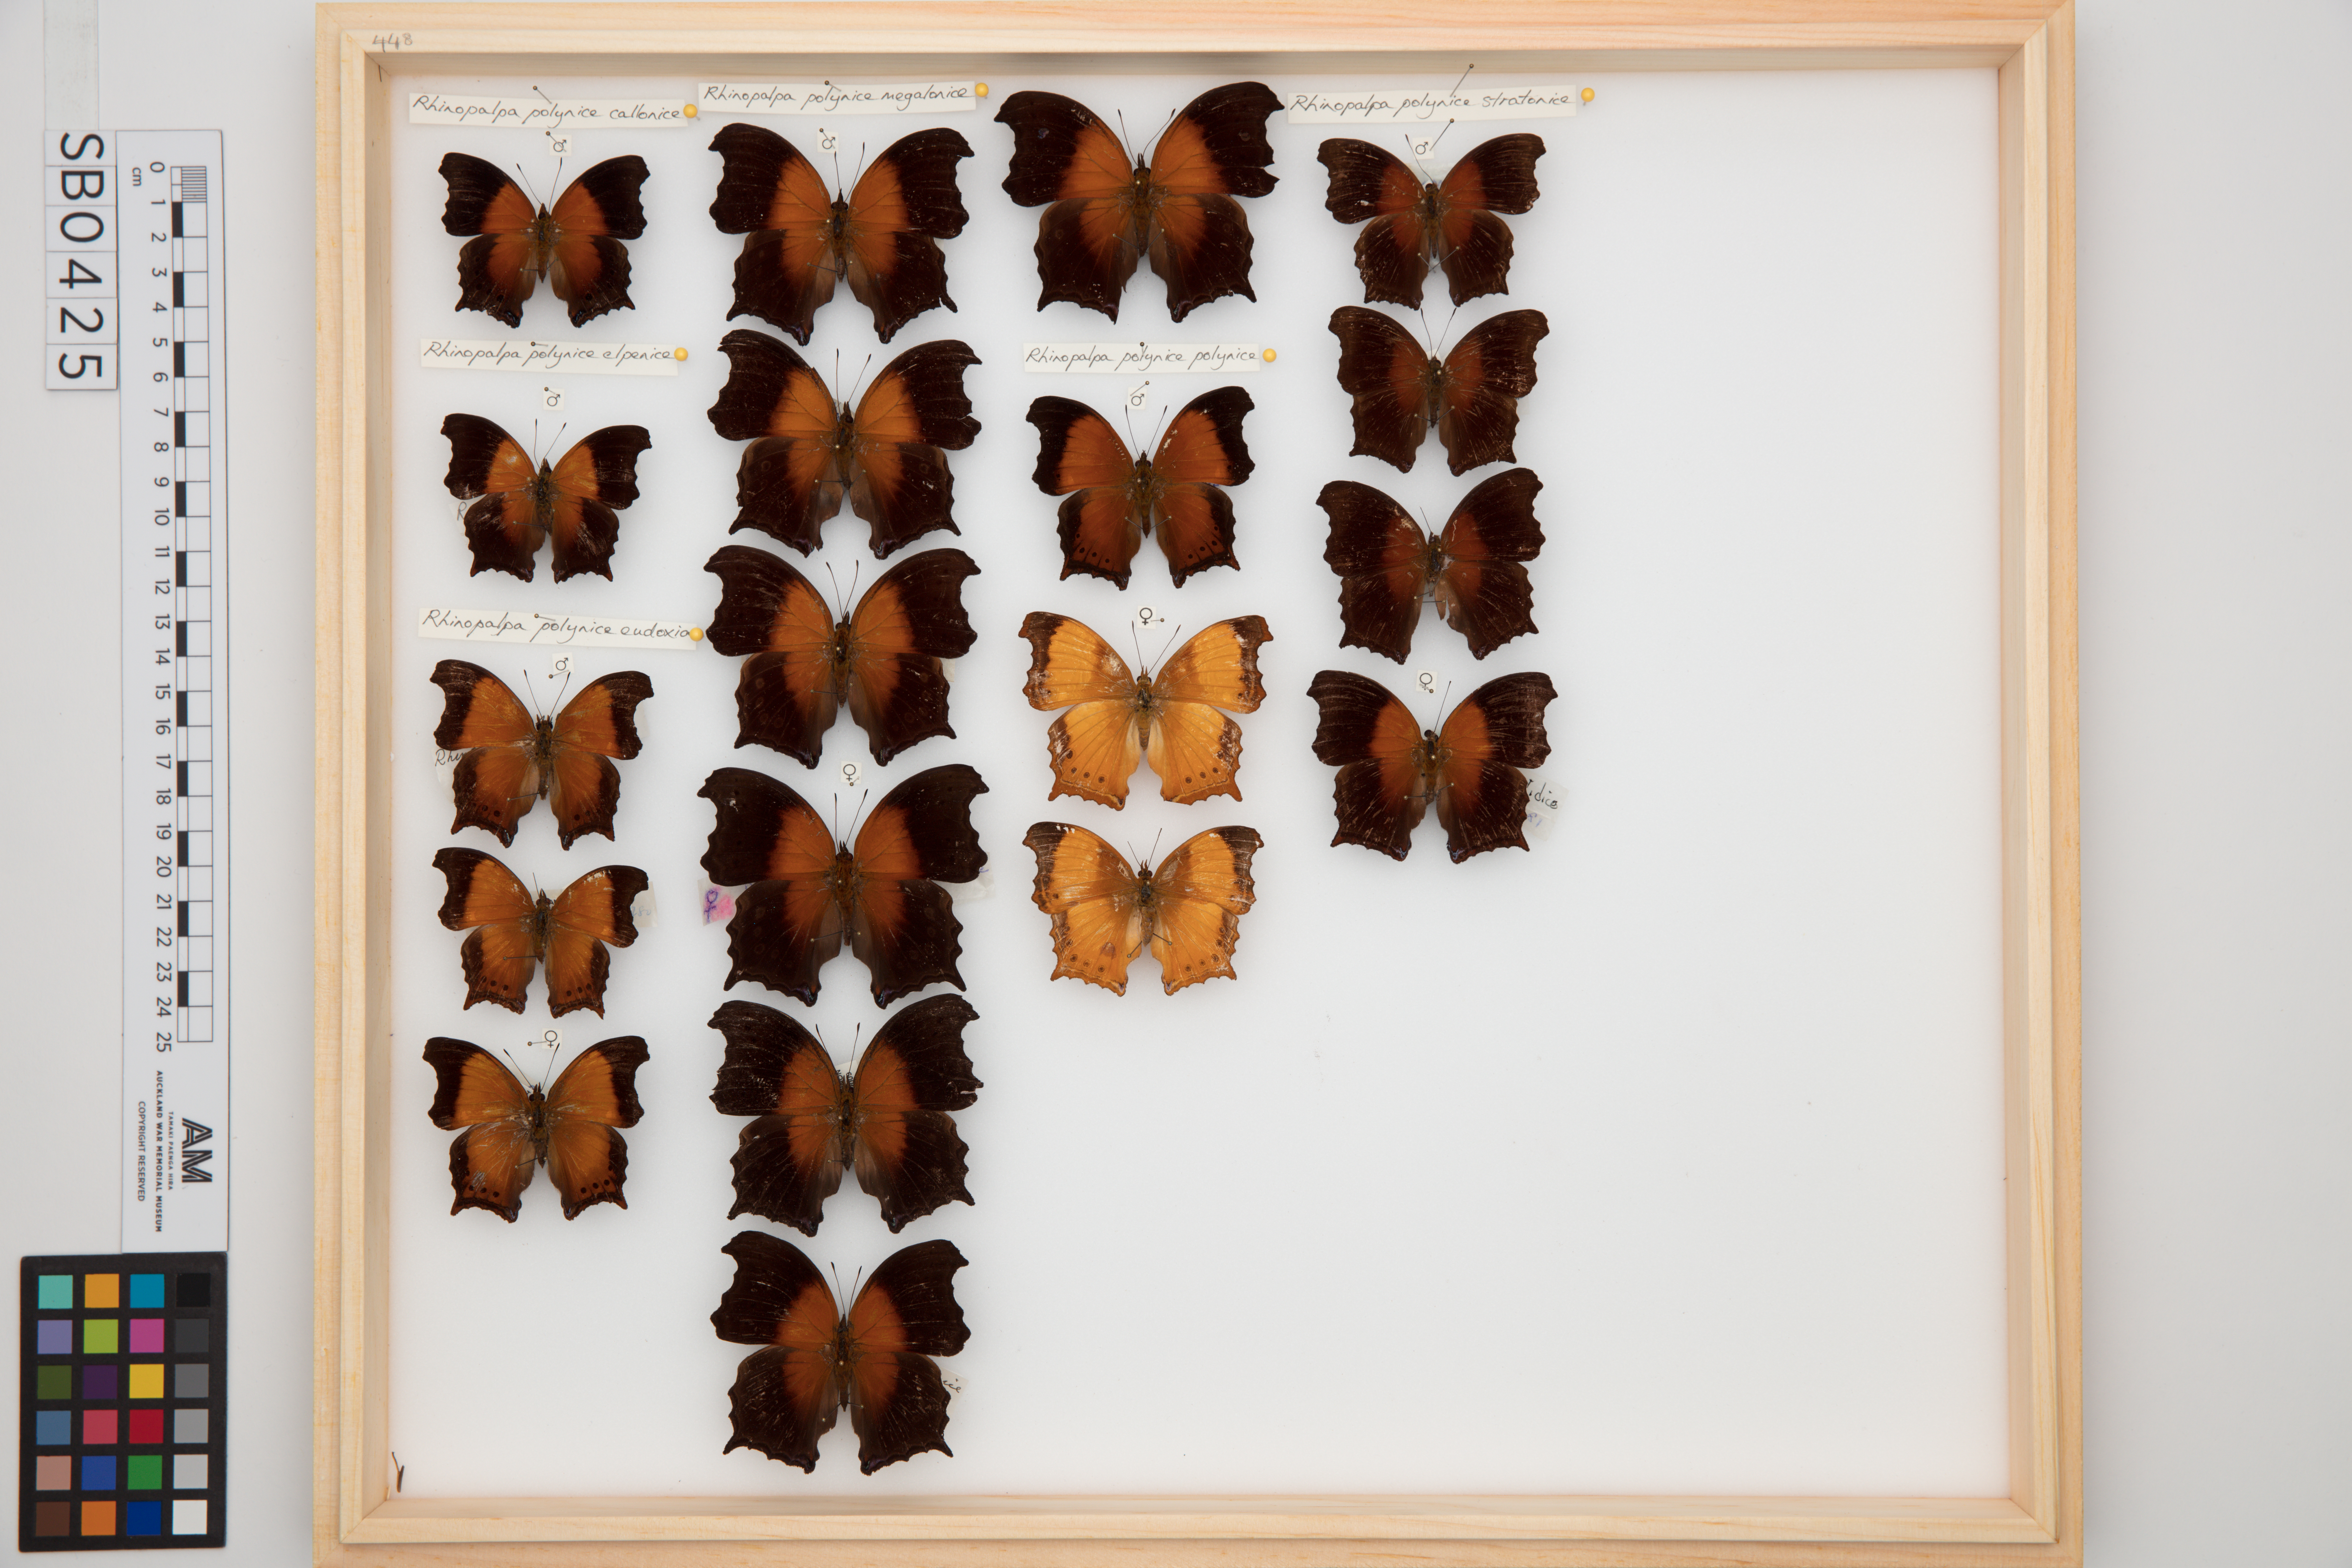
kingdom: Animalia
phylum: Arthropoda
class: Insecta
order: Lepidoptera
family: Nymphalidae
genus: Rhinopalpa
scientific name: Rhinopalpa polynice
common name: Wizard
